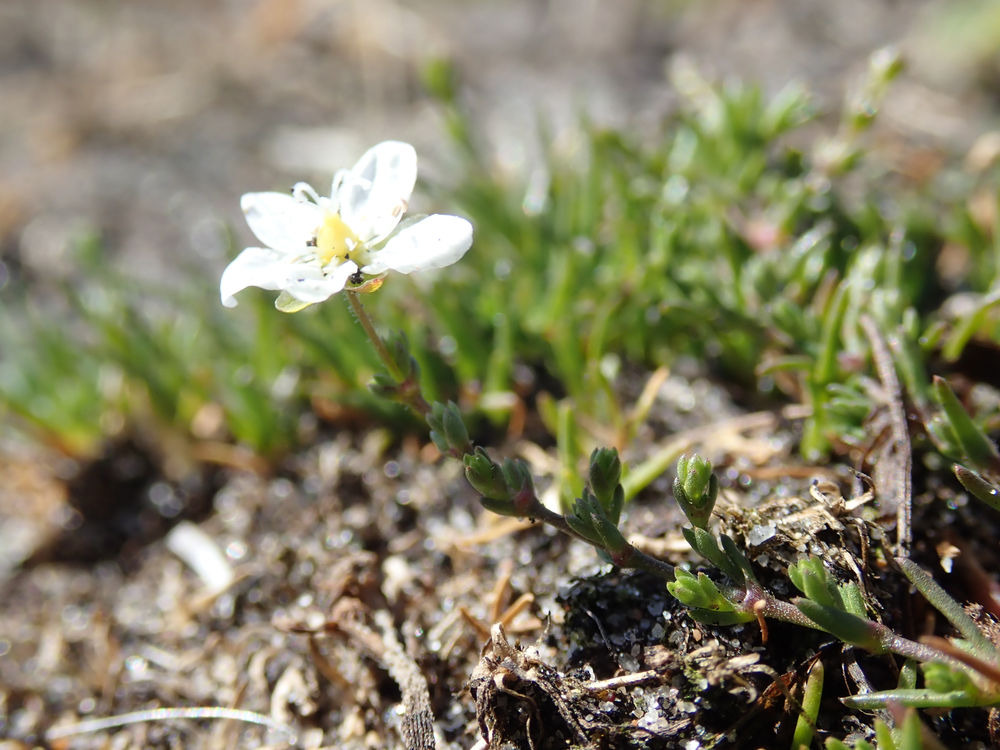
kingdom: Plantae
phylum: Tracheophyta
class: Magnoliopsida
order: Caryophyllales
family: Caryophyllaceae
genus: Sagina
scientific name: Sagina nodosa
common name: Knude-firling
